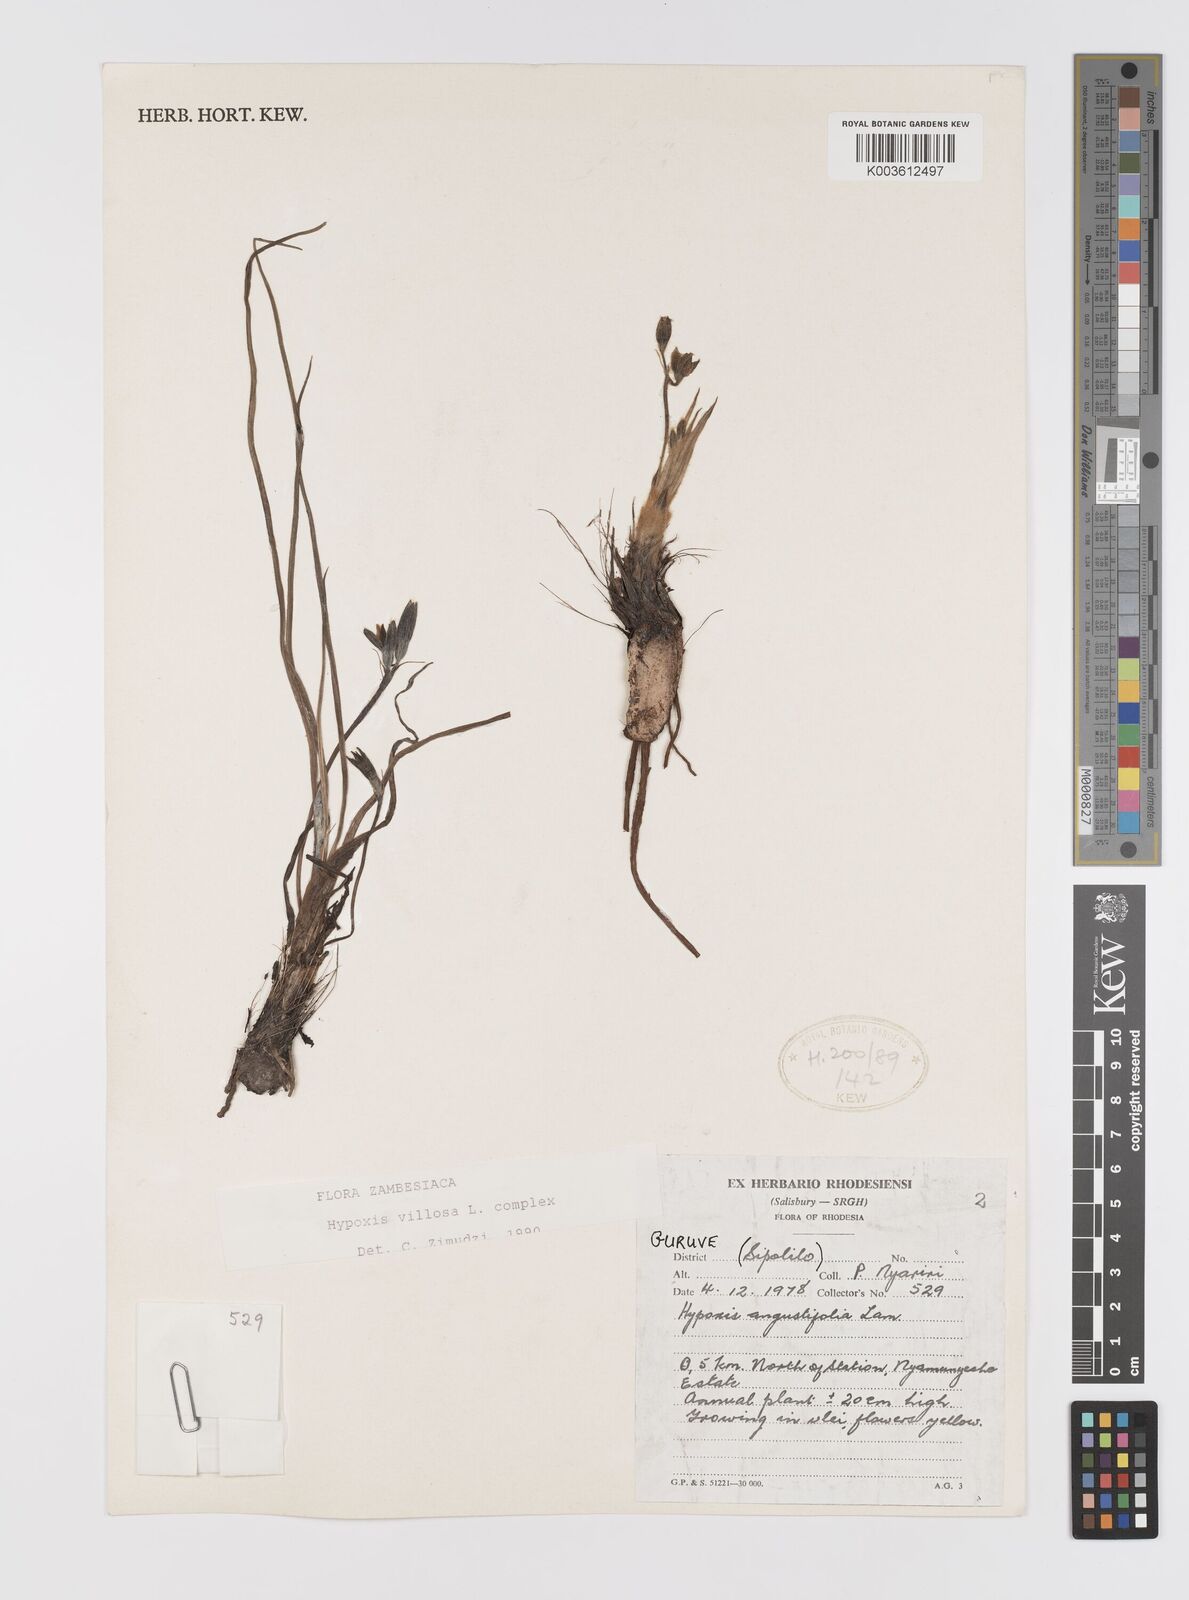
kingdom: Plantae
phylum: Tracheophyta
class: Liliopsida
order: Asparagales
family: Hypoxidaceae
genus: Hypoxis
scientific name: Hypoxis nyasica
